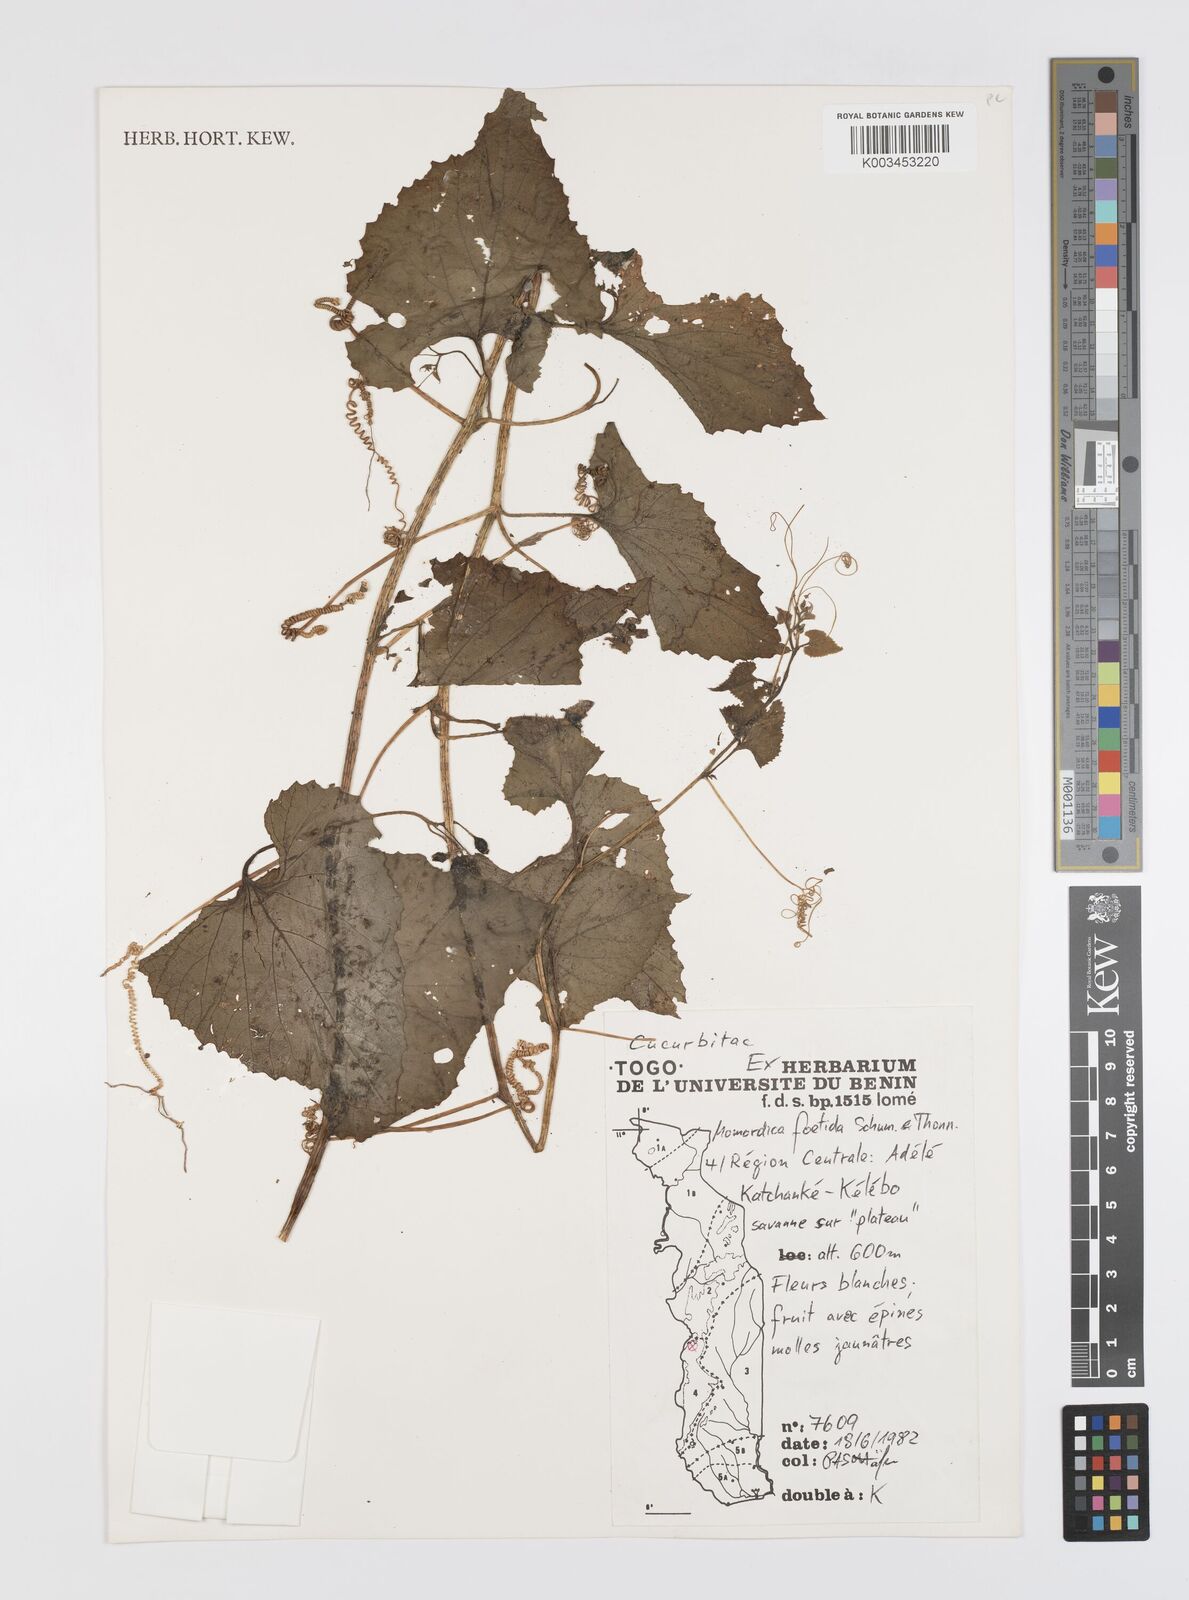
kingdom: Plantae
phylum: Tracheophyta
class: Magnoliopsida
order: Cucurbitales
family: Cucurbitaceae
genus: Momordica
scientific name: Momordica foetida
